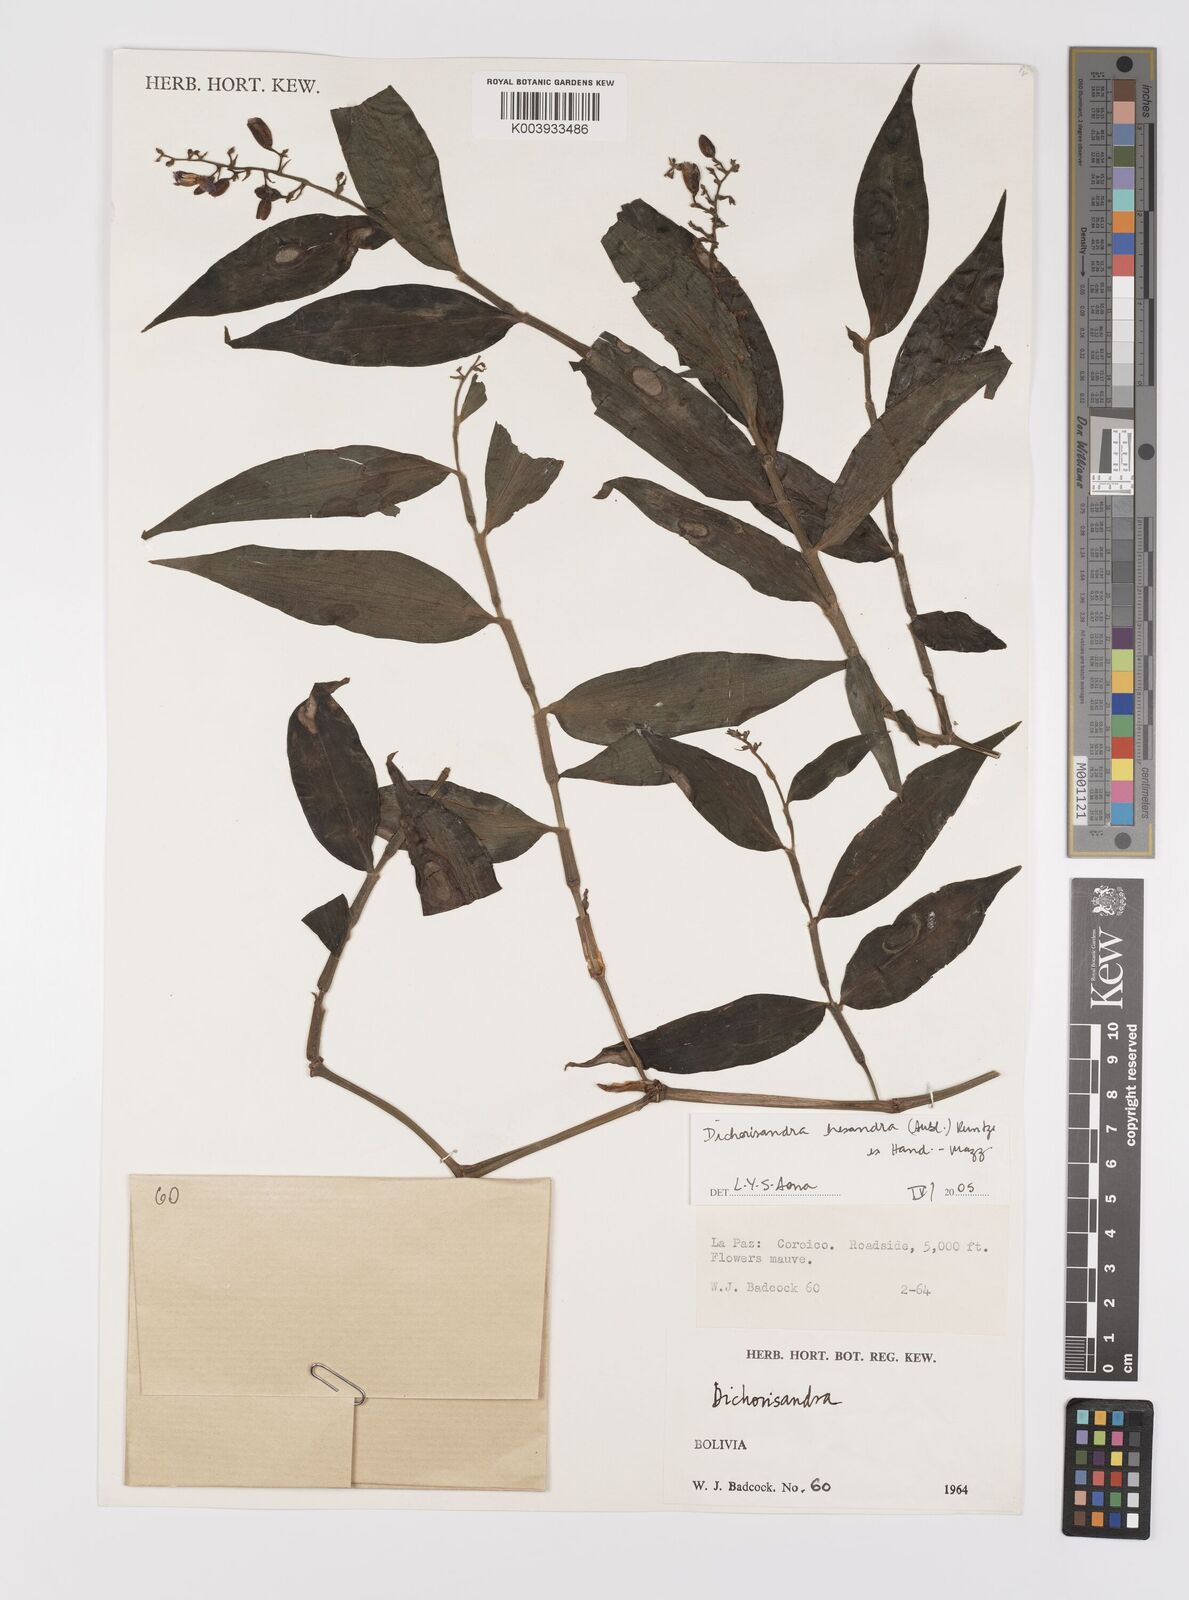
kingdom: Plantae
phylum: Tracheophyta
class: Liliopsida
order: Commelinales
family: Commelinaceae
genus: Dichorisandra
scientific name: Dichorisandra hexandra
